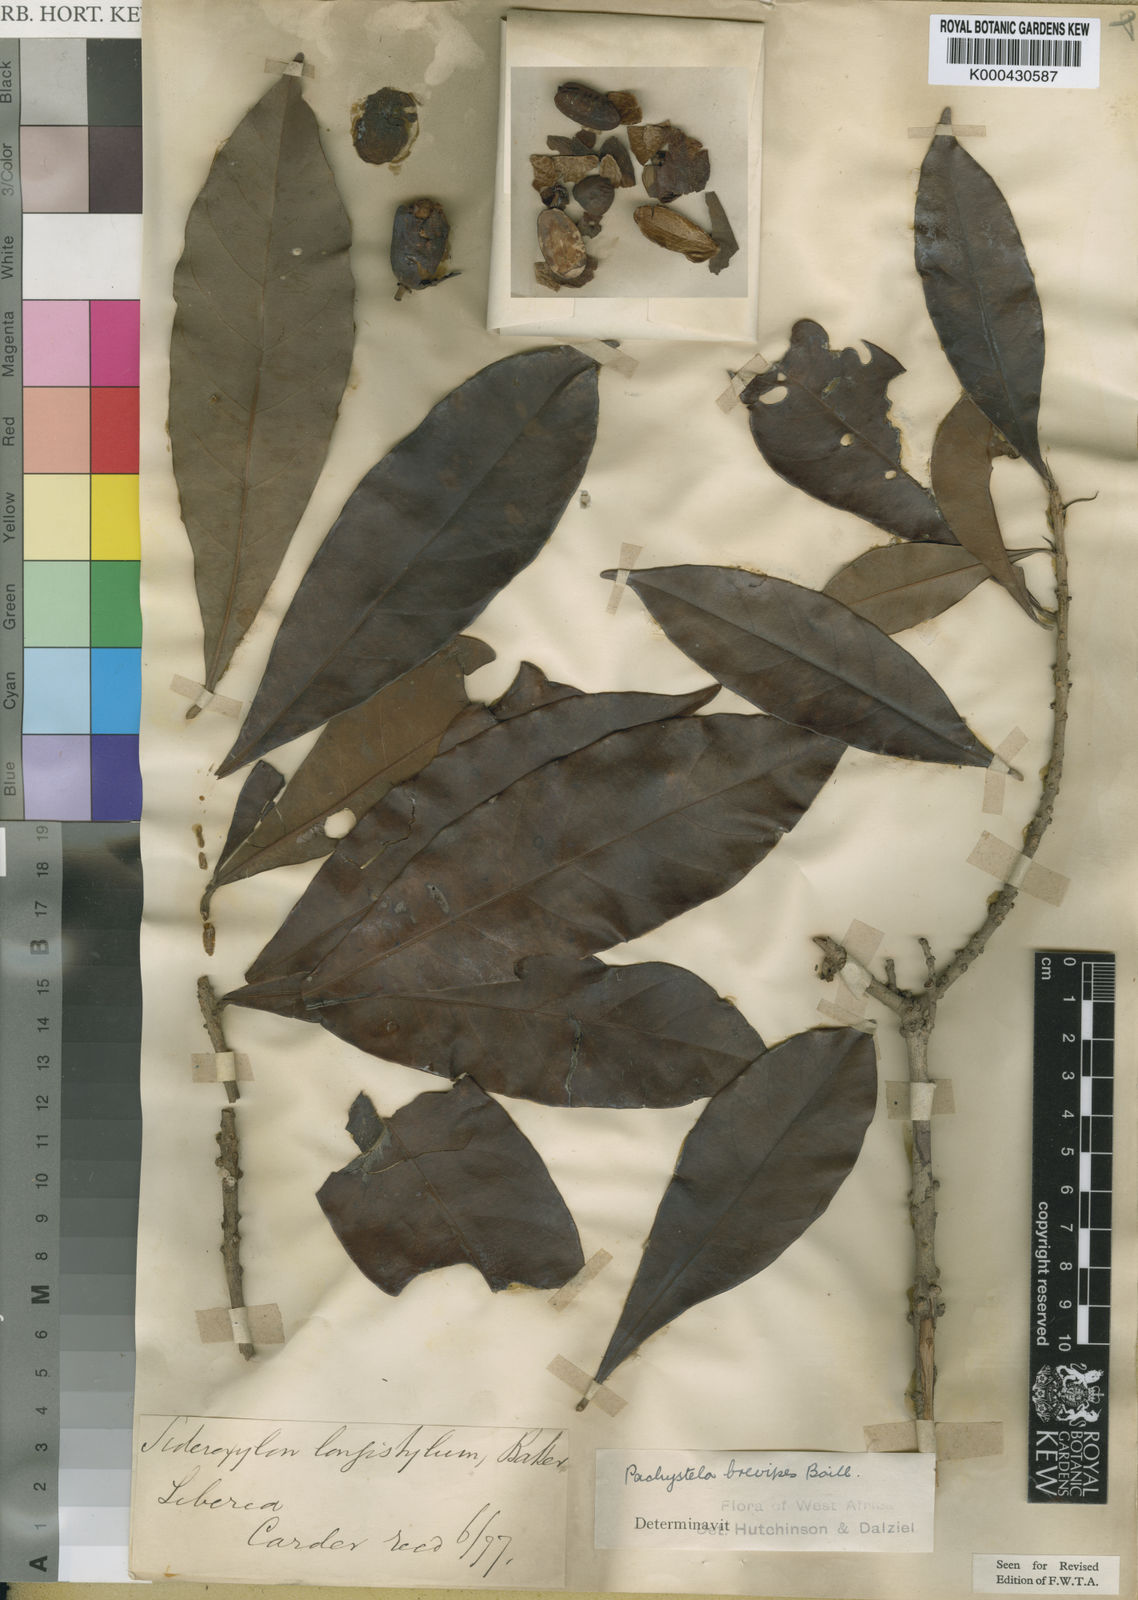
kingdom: Plantae
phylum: Tracheophyta
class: Magnoliopsida
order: Ericales
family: Sapotaceae
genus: Synsepalum
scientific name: Synsepalum brevipes
